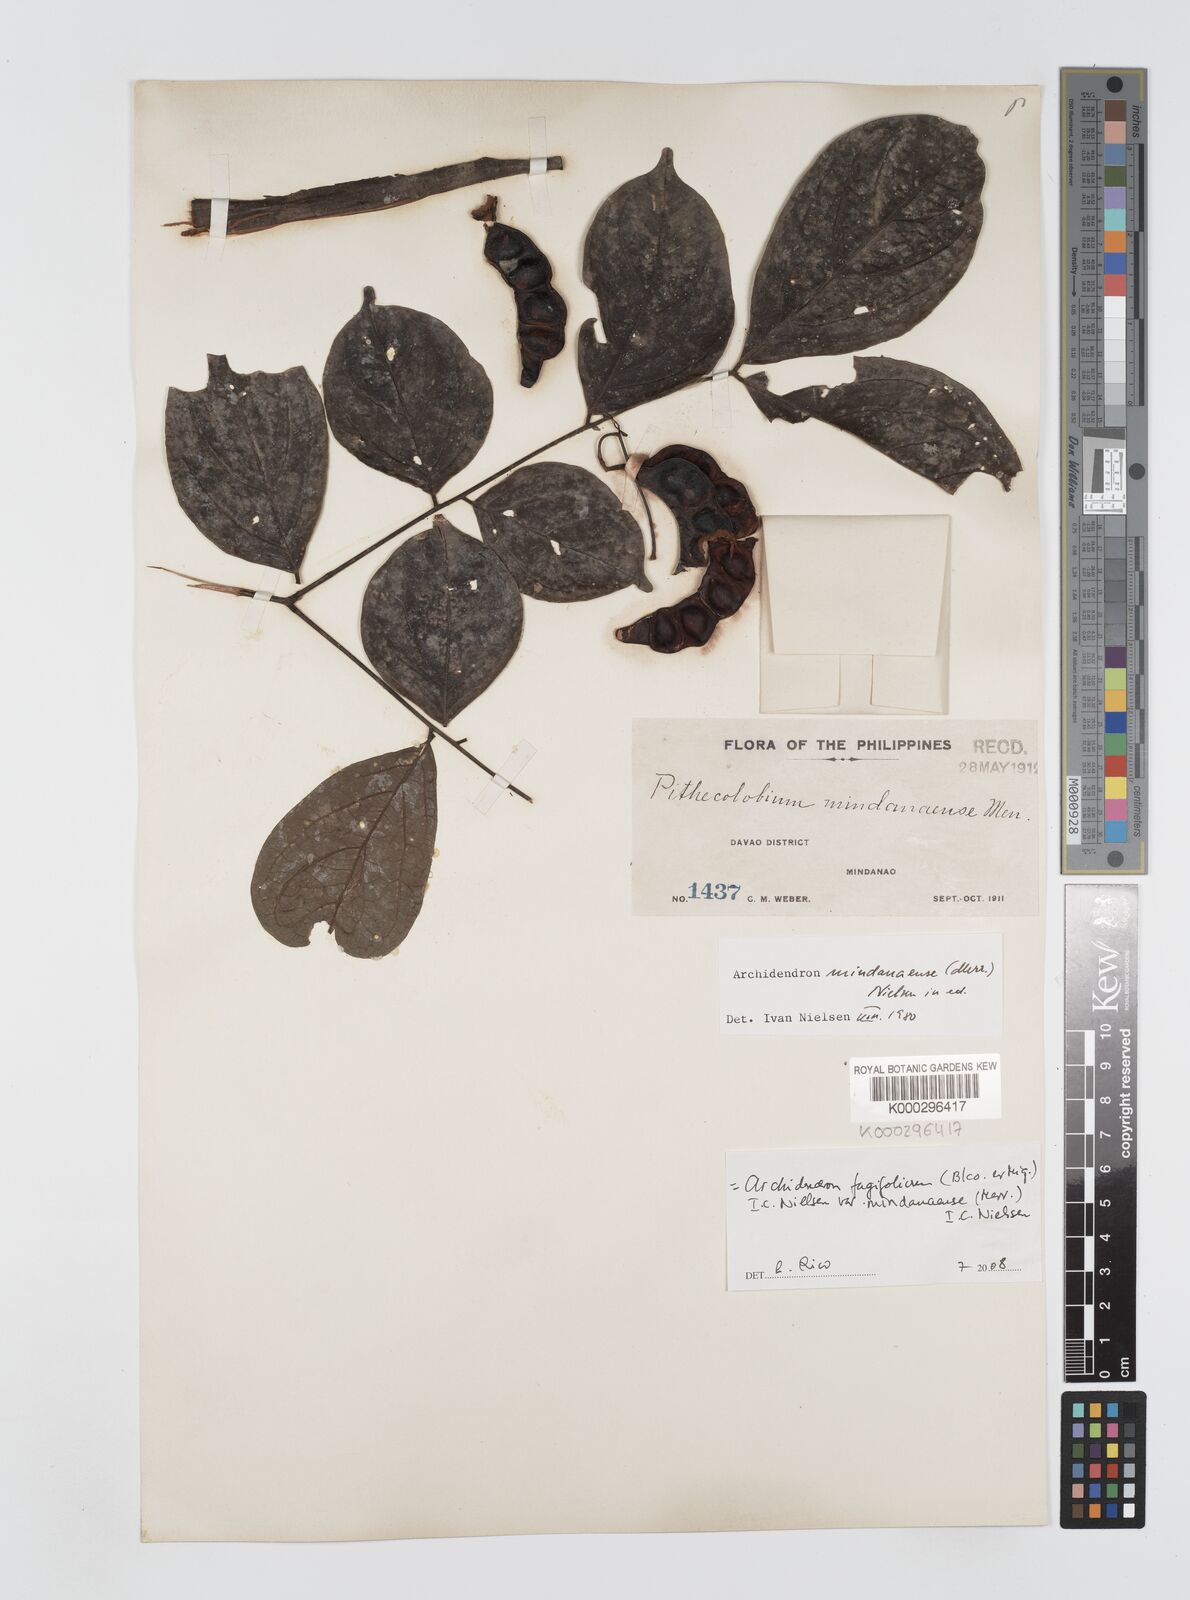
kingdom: Plantae
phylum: Tracheophyta
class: Magnoliopsida
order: Fabales
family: Fabaceae
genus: Archidendron
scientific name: Archidendron fagifolium
